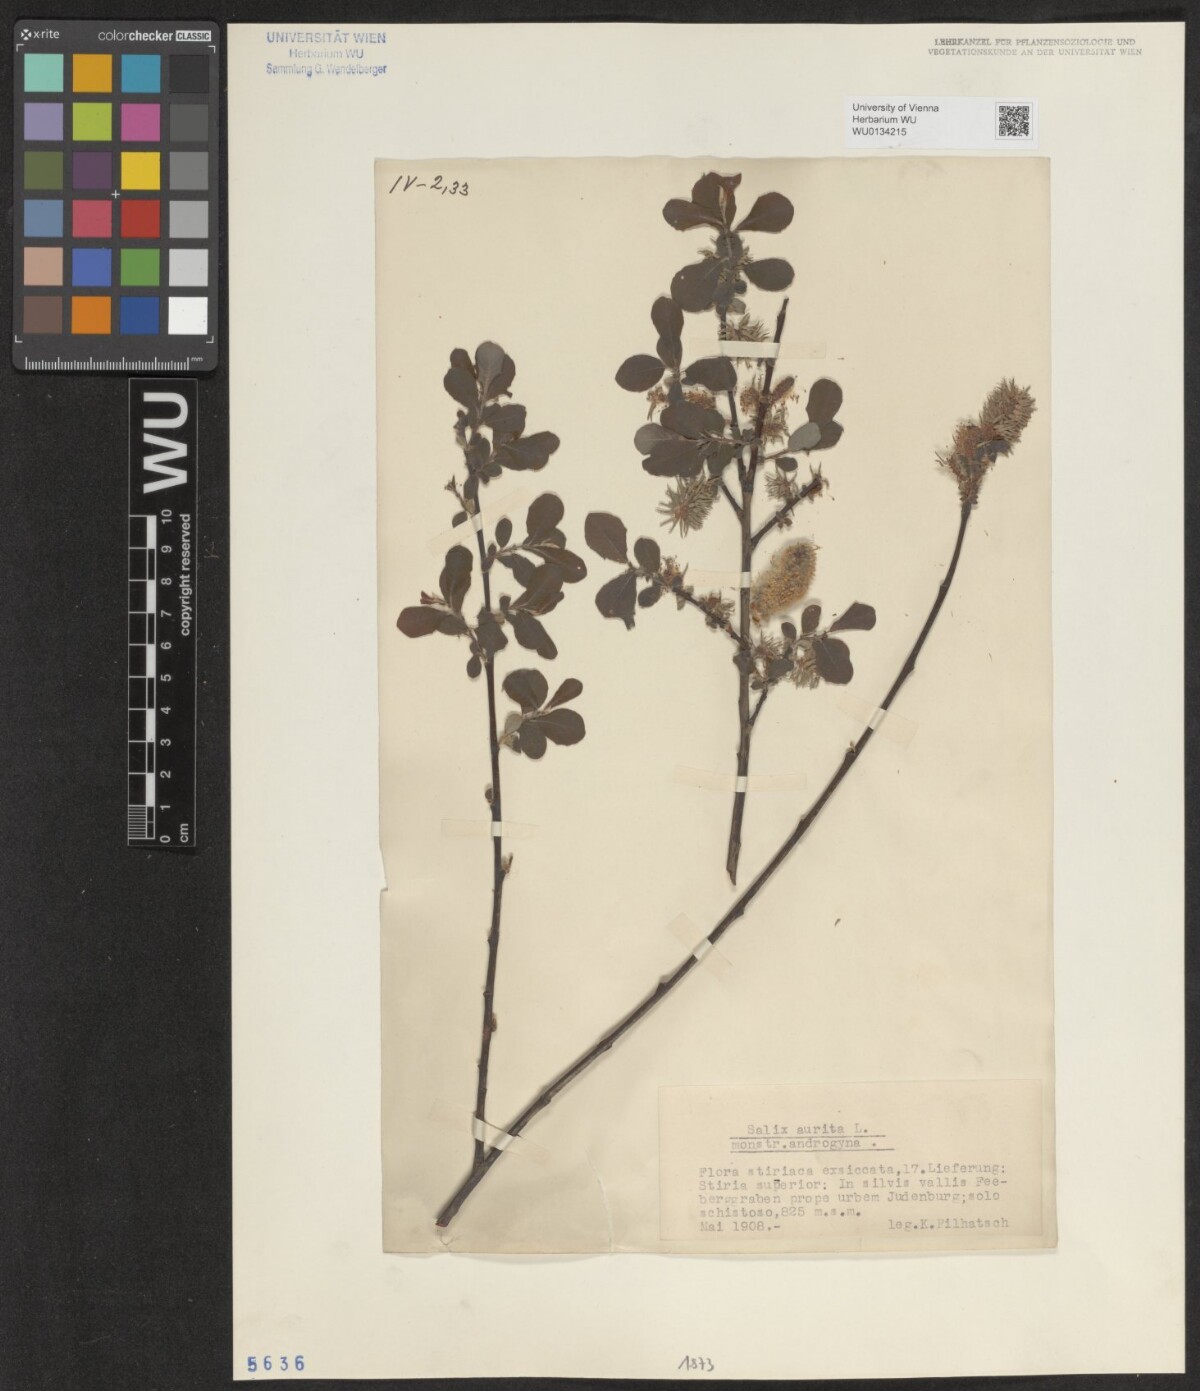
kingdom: Plantae
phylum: Tracheophyta
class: Magnoliopsida
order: Malpighiales
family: Salicaceae
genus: Salix
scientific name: Salix aurita
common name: Eared willow
